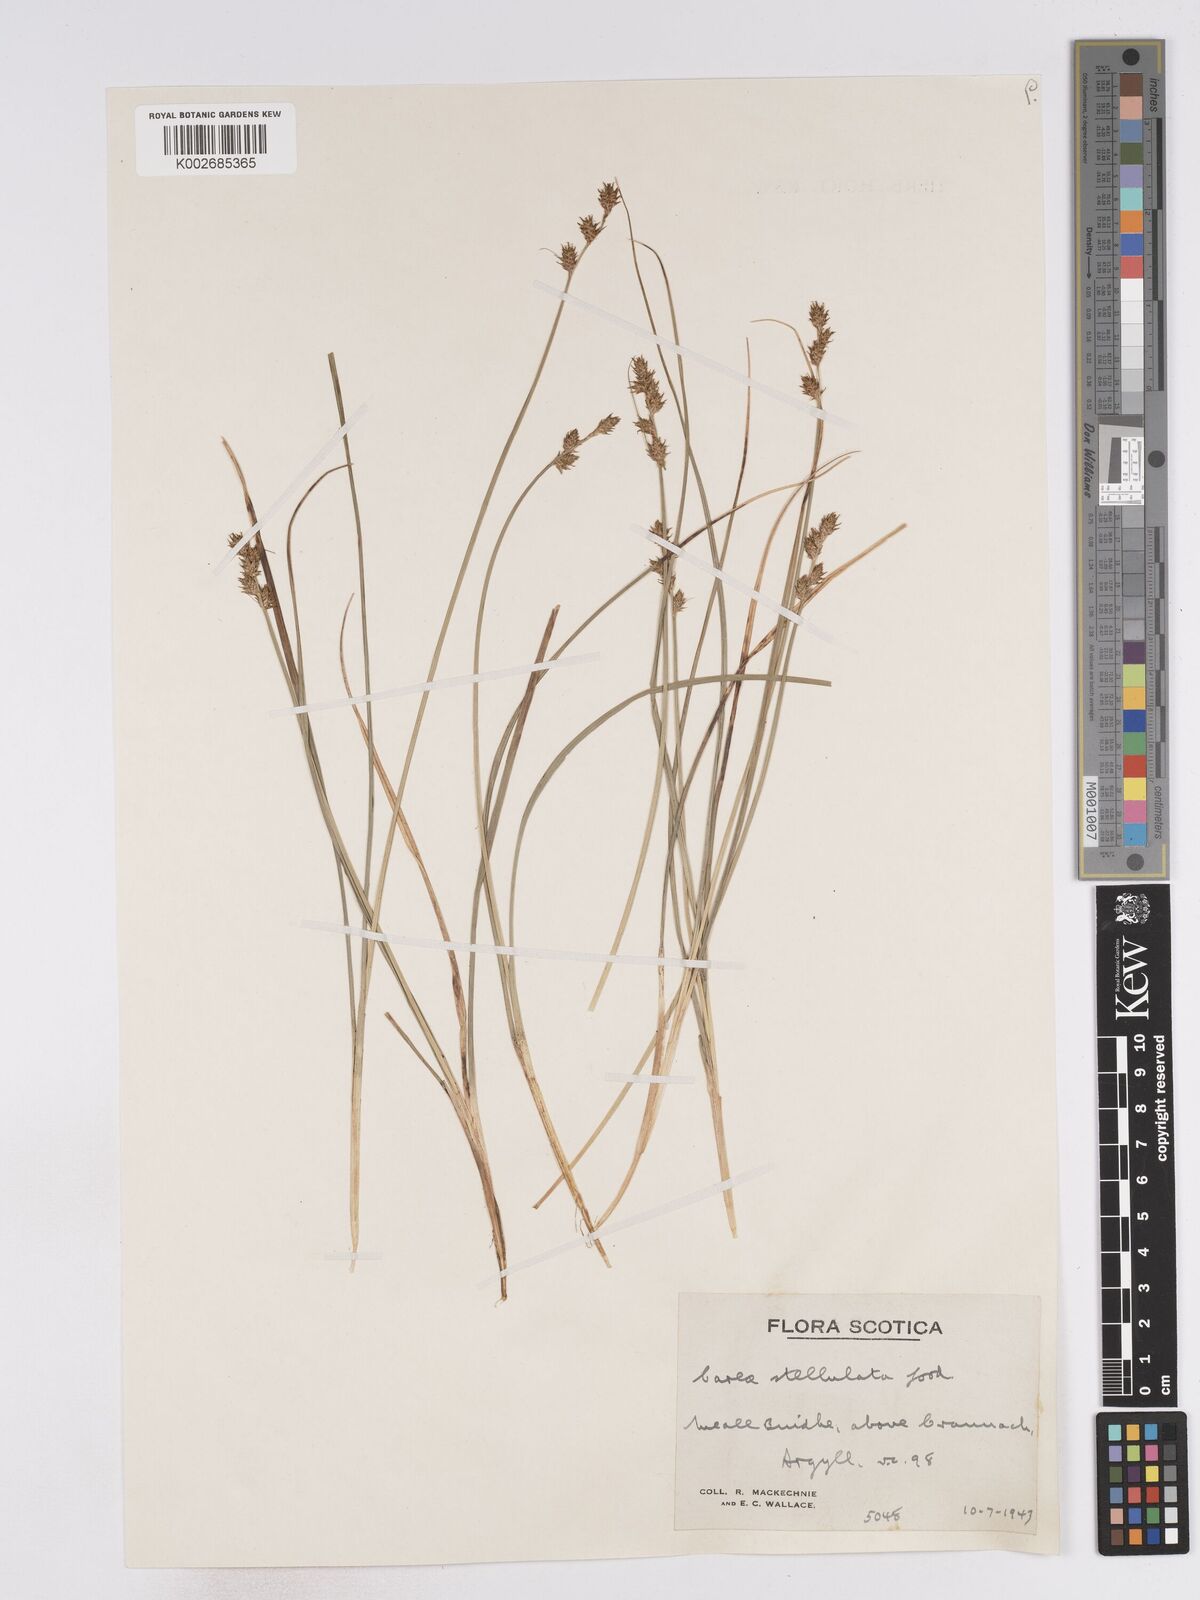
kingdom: Plantae
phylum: Tracheophyta
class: Liliopsida
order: Poales
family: Cyperaceae
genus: Carex
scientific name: Carex echinata
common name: Star sedge
